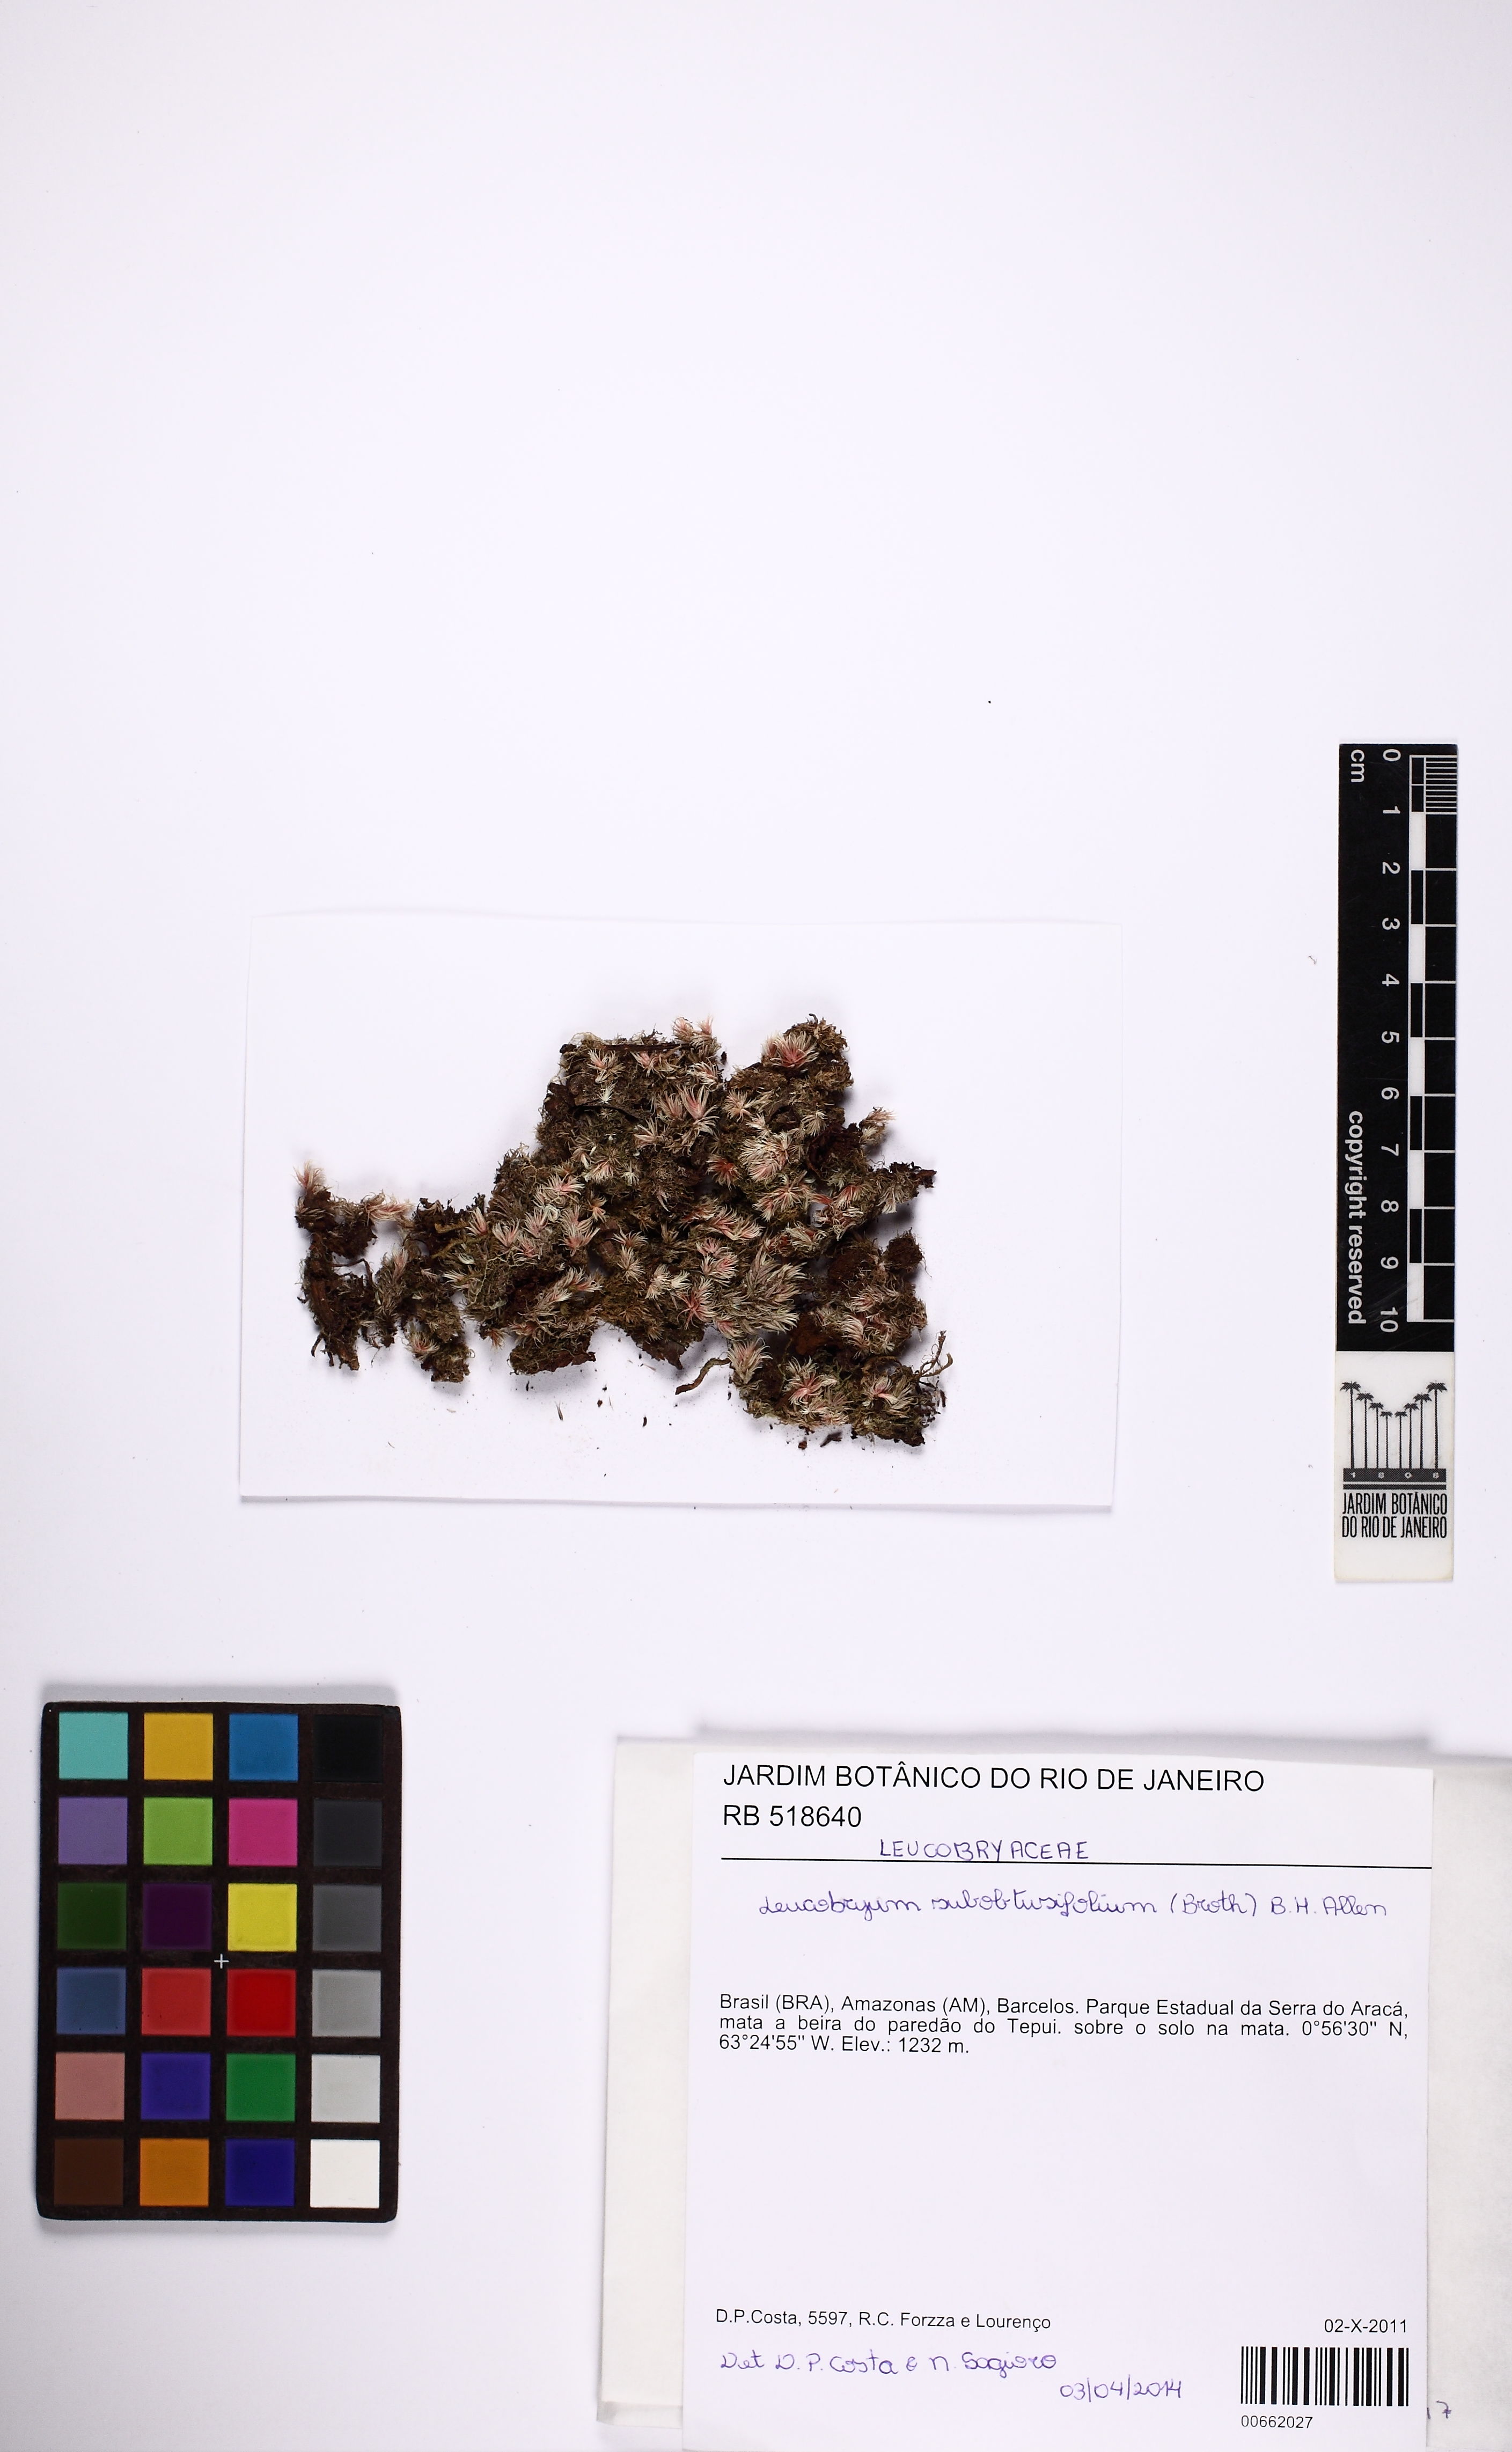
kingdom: Plantae
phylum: Bryophyta
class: Bryopsida
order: Dicranales
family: Leucobryaceae
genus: Leucobryum
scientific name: Leucobryum subobtusifolium
